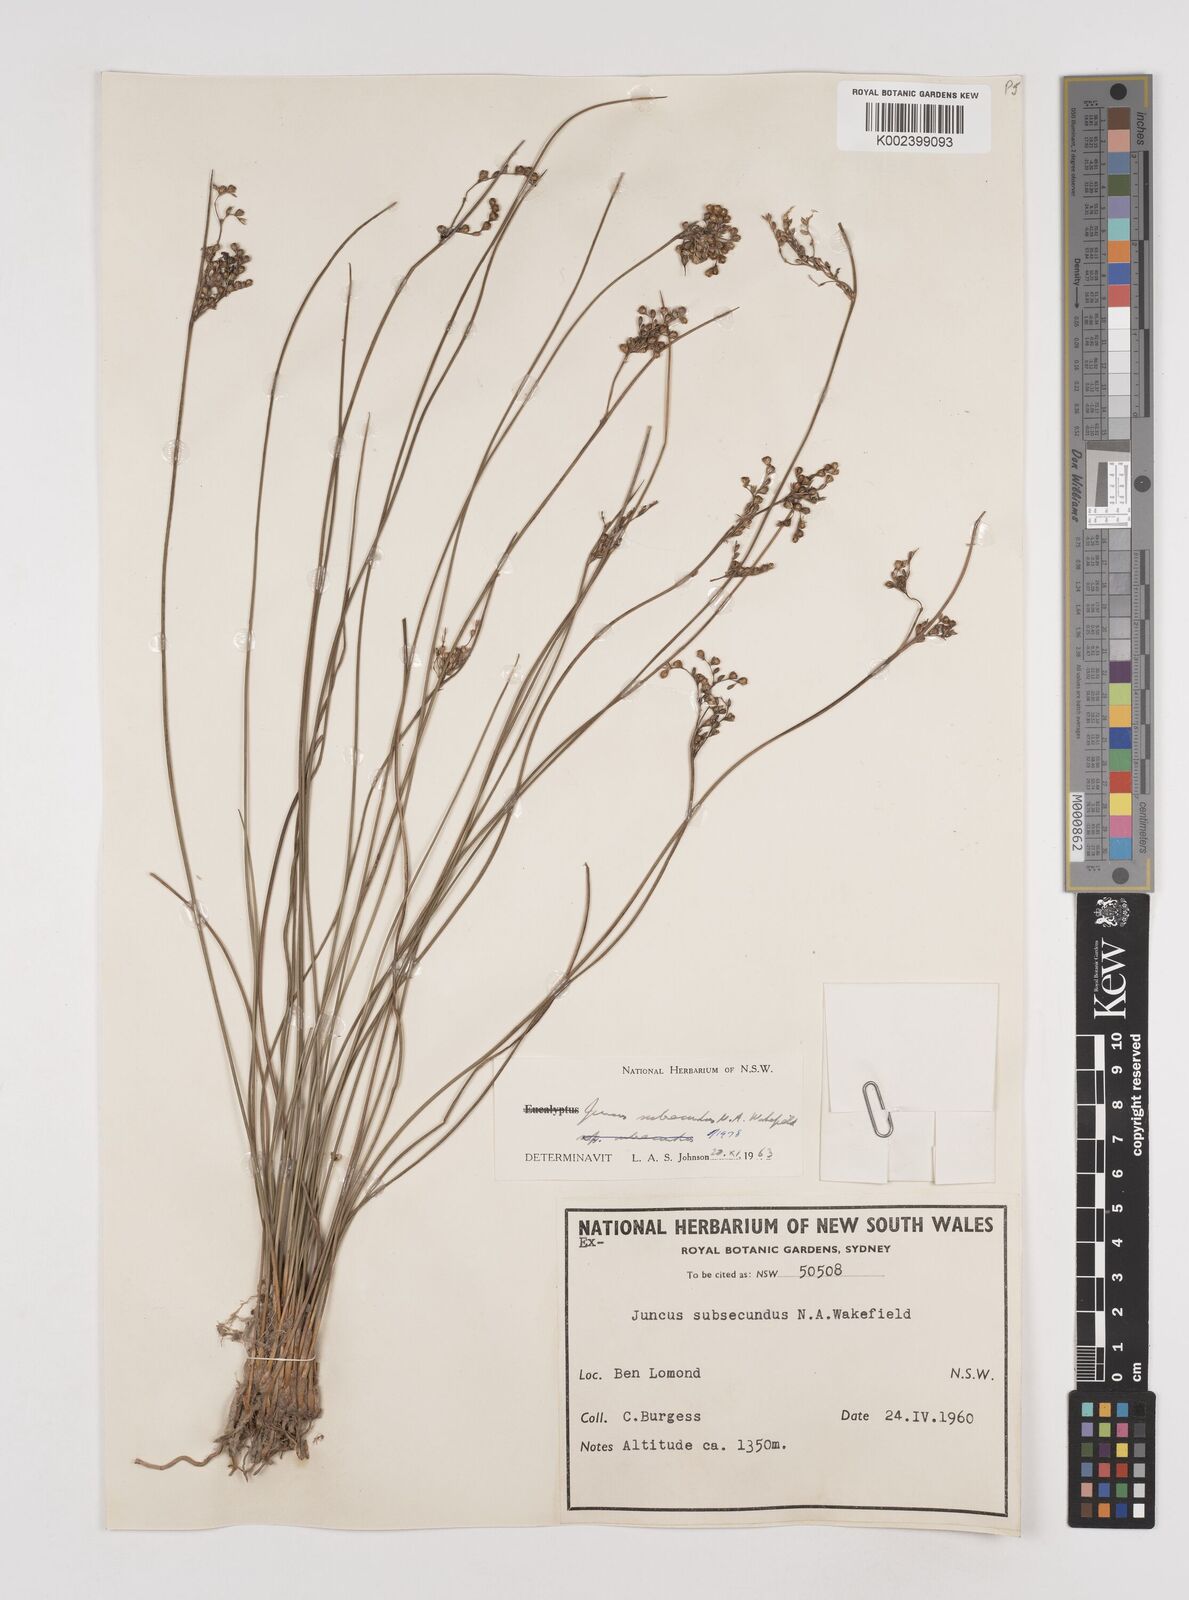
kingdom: Plantae
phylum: Tracheophyta
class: Liliopsida
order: Poales
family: Juncaceae
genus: Juncus
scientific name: Juncus subsecundus
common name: Fingered rush
